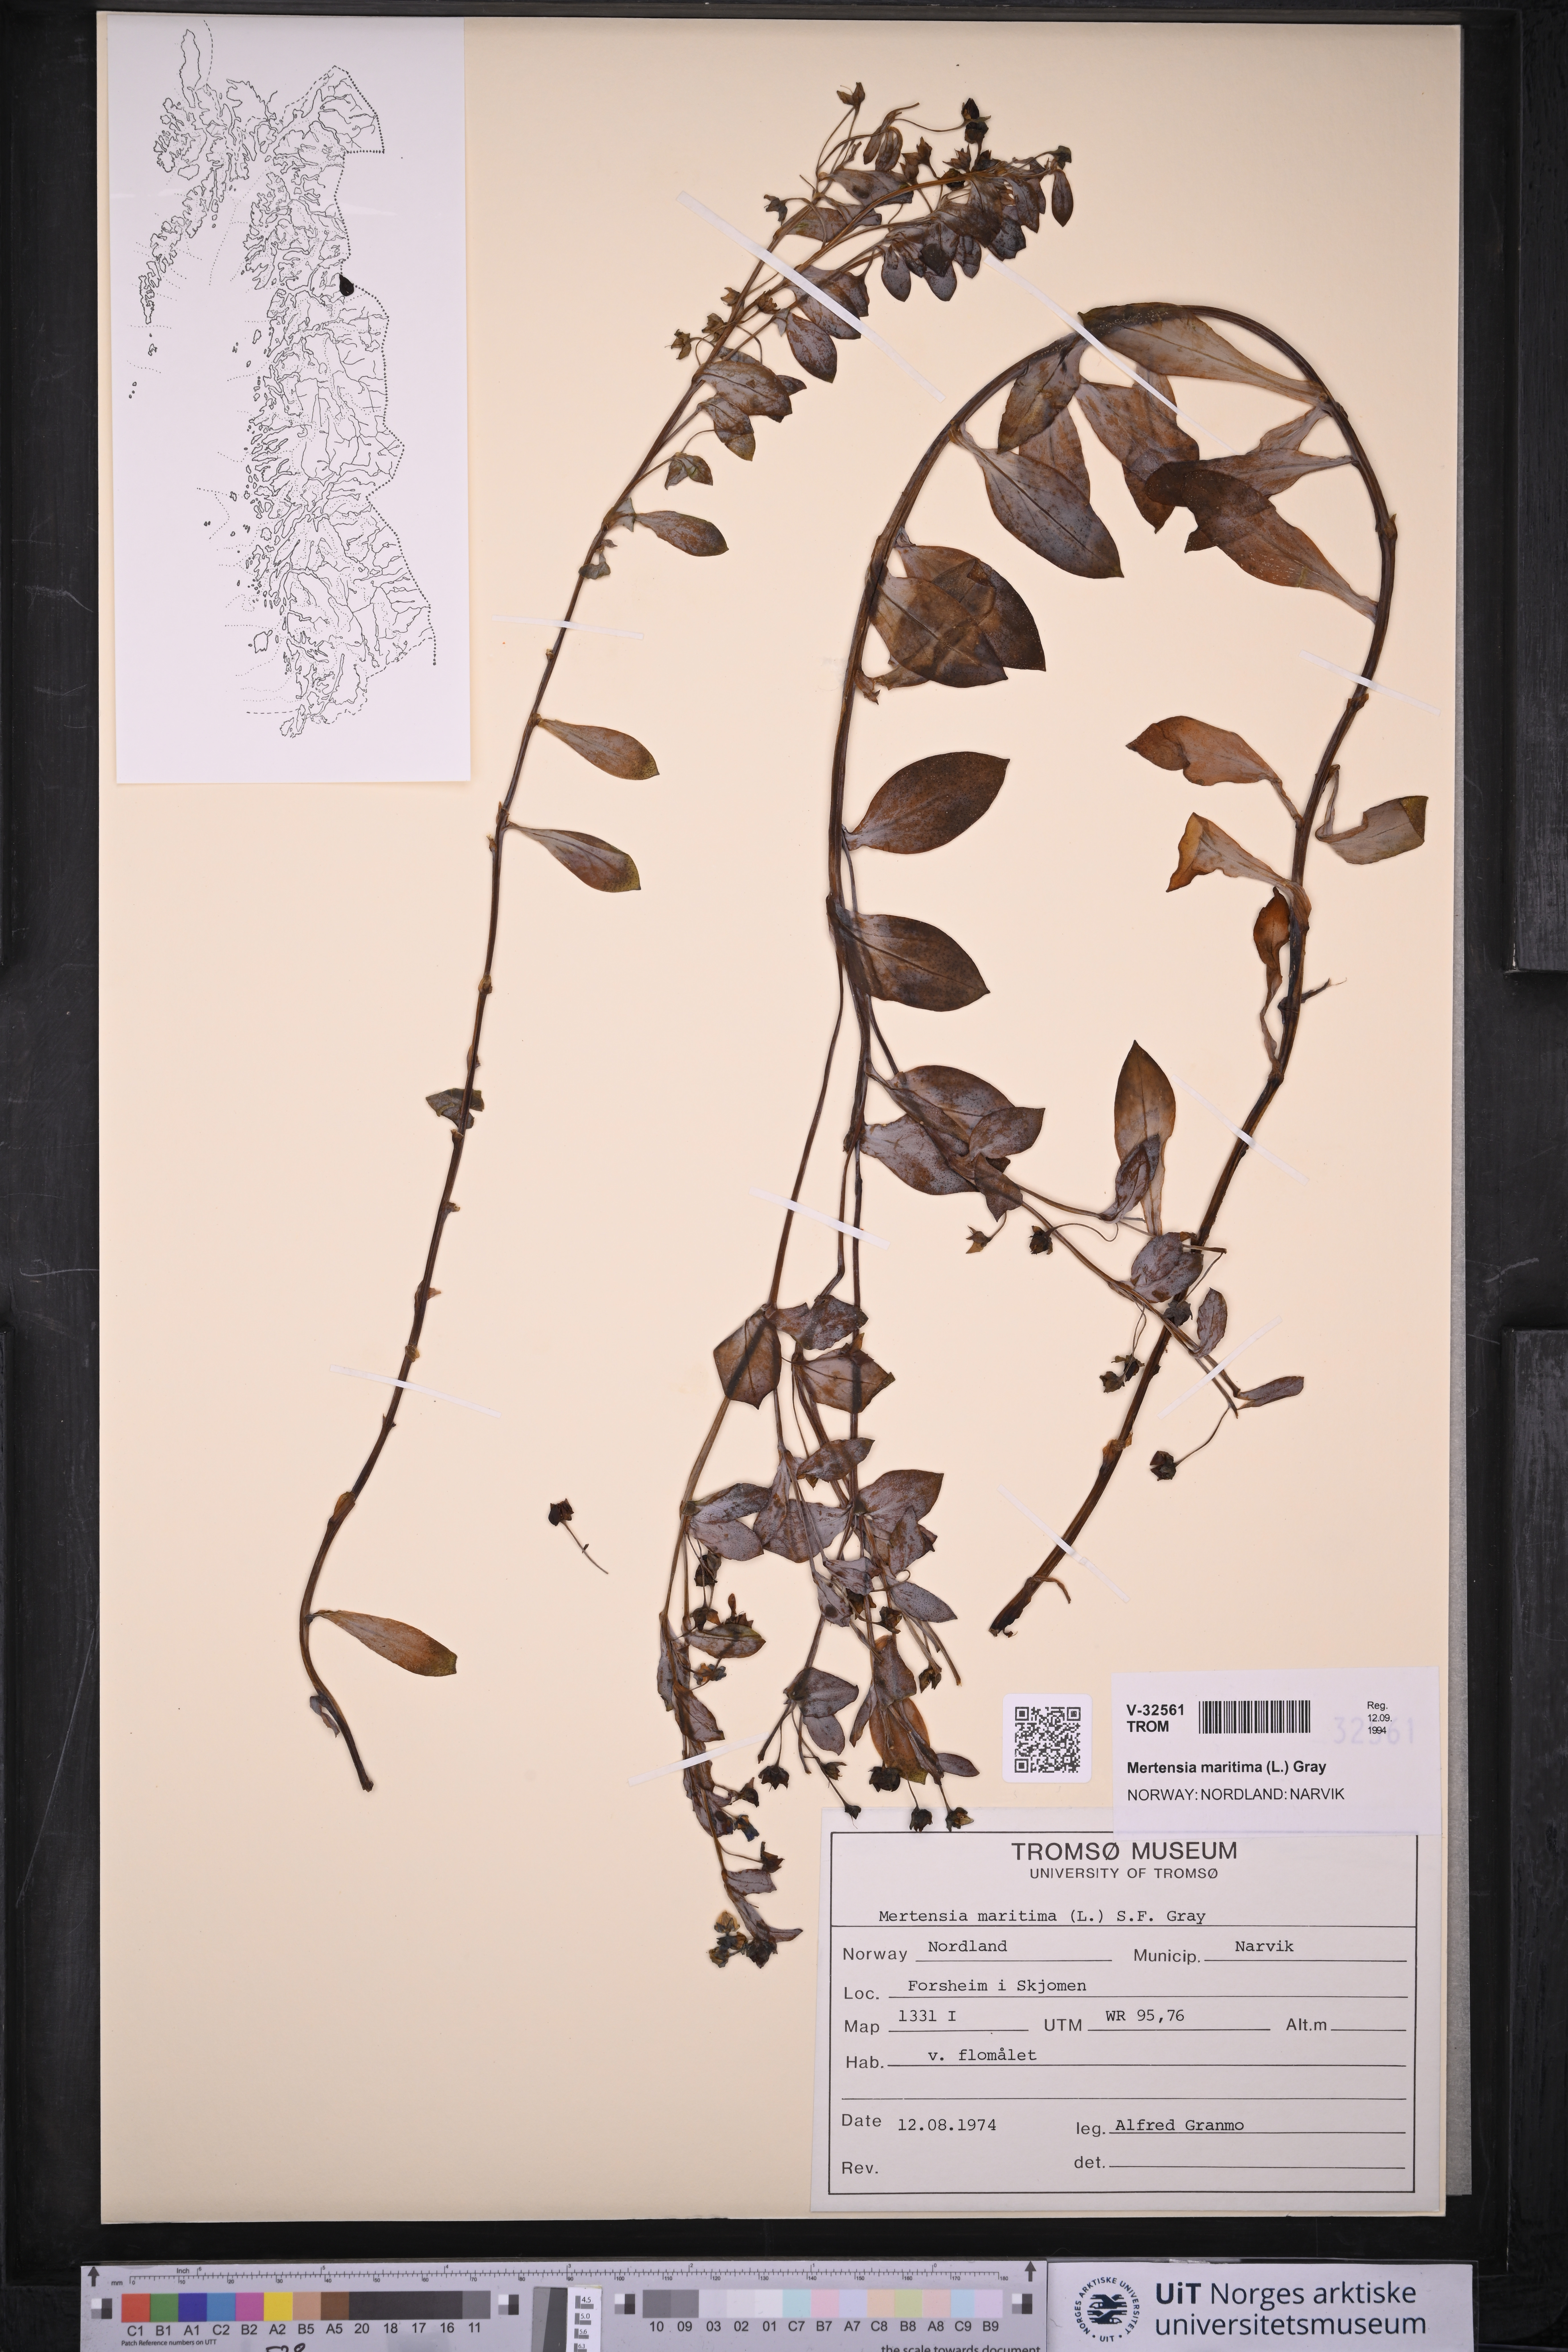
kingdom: Plantae
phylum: Tracheophyta
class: Magnoliopsida
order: Boraginales
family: Boraginaceae
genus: Mertensia
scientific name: Mertensia maritima
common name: Oysterplant
